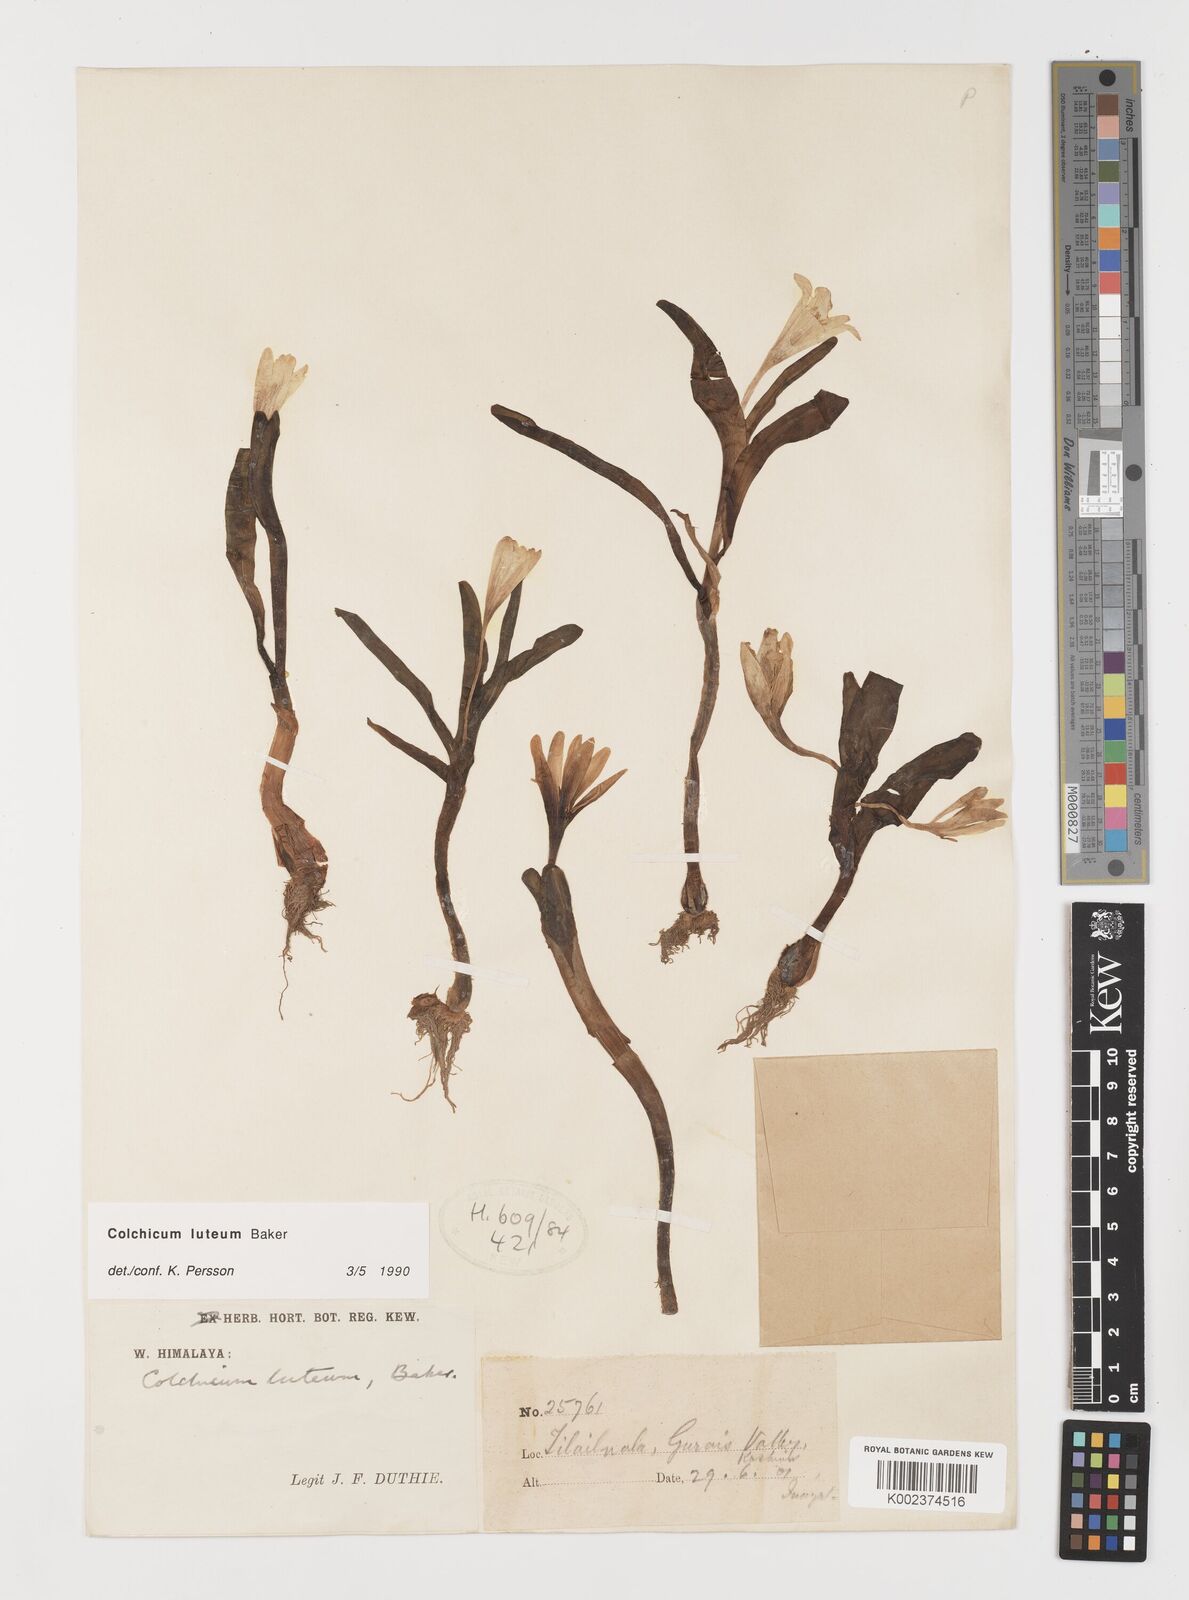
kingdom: Plantae
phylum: Tracheophyta
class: Liliopsida
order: Liliales
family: Colchicaceae
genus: Colchicum
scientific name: Colchicum luteum
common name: Indian colchicum
